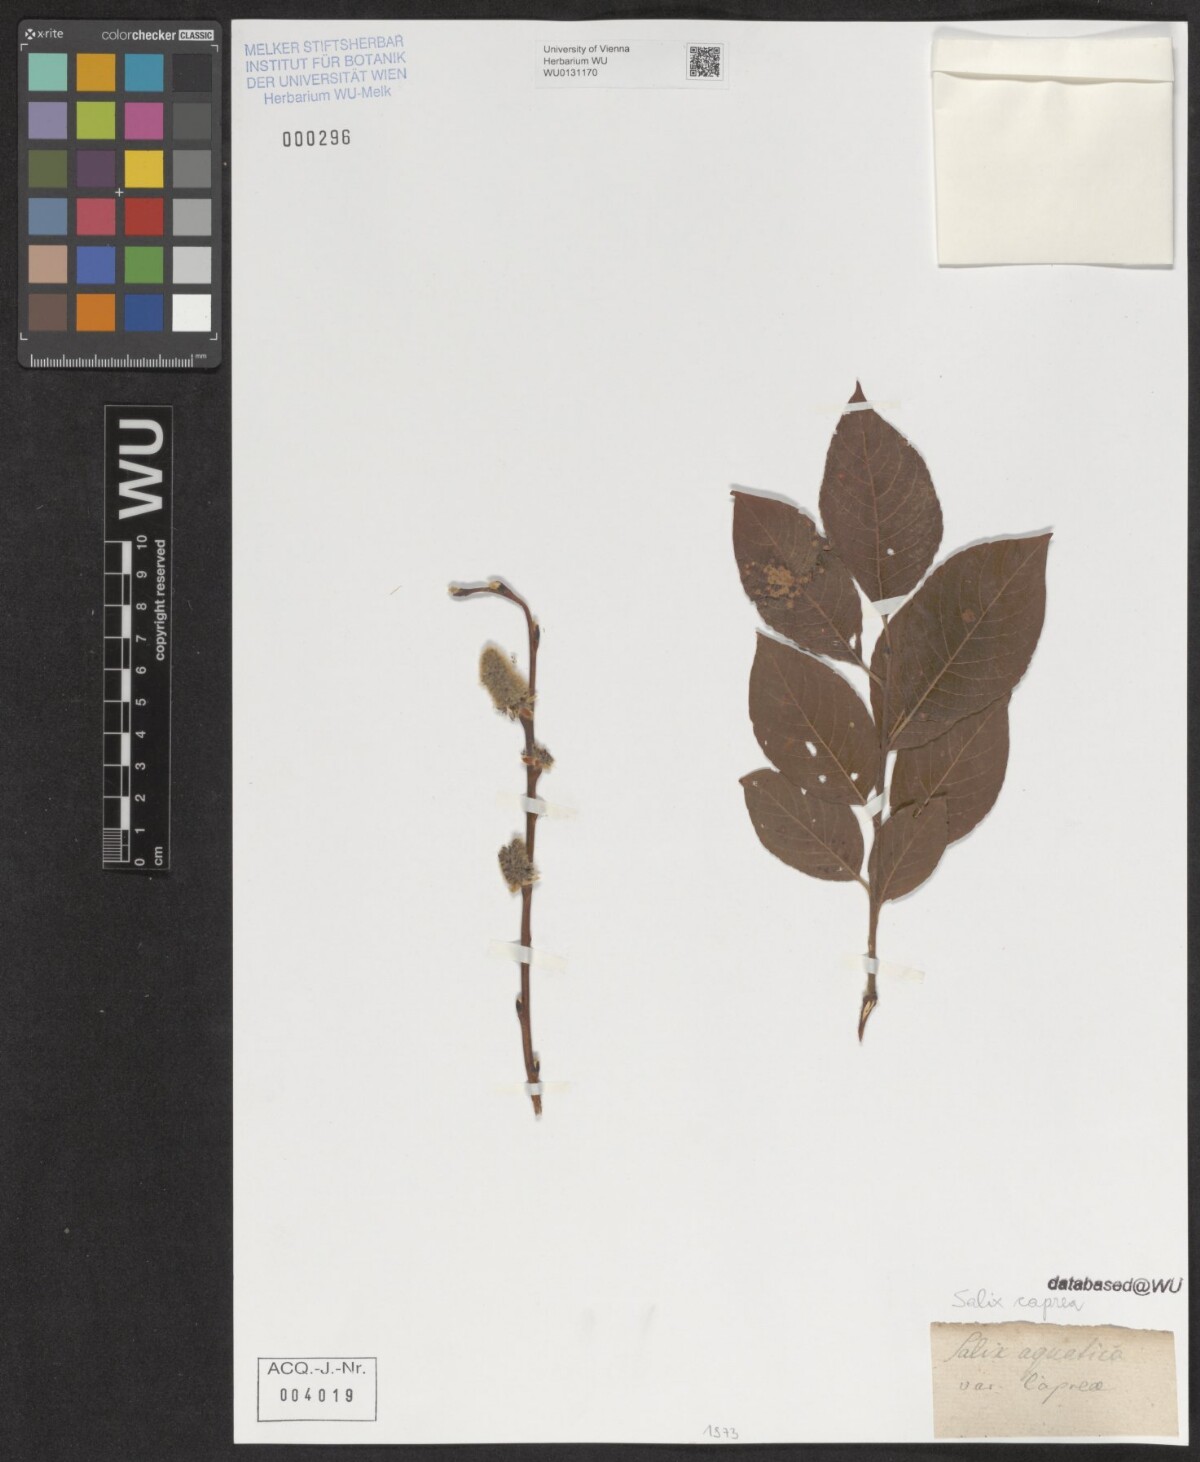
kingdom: Plantae
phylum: Tracheophyta
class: Magnoliopsida
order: Malpighiales
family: Salicaceae
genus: Salix
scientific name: Salix caprea
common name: Goat willow
